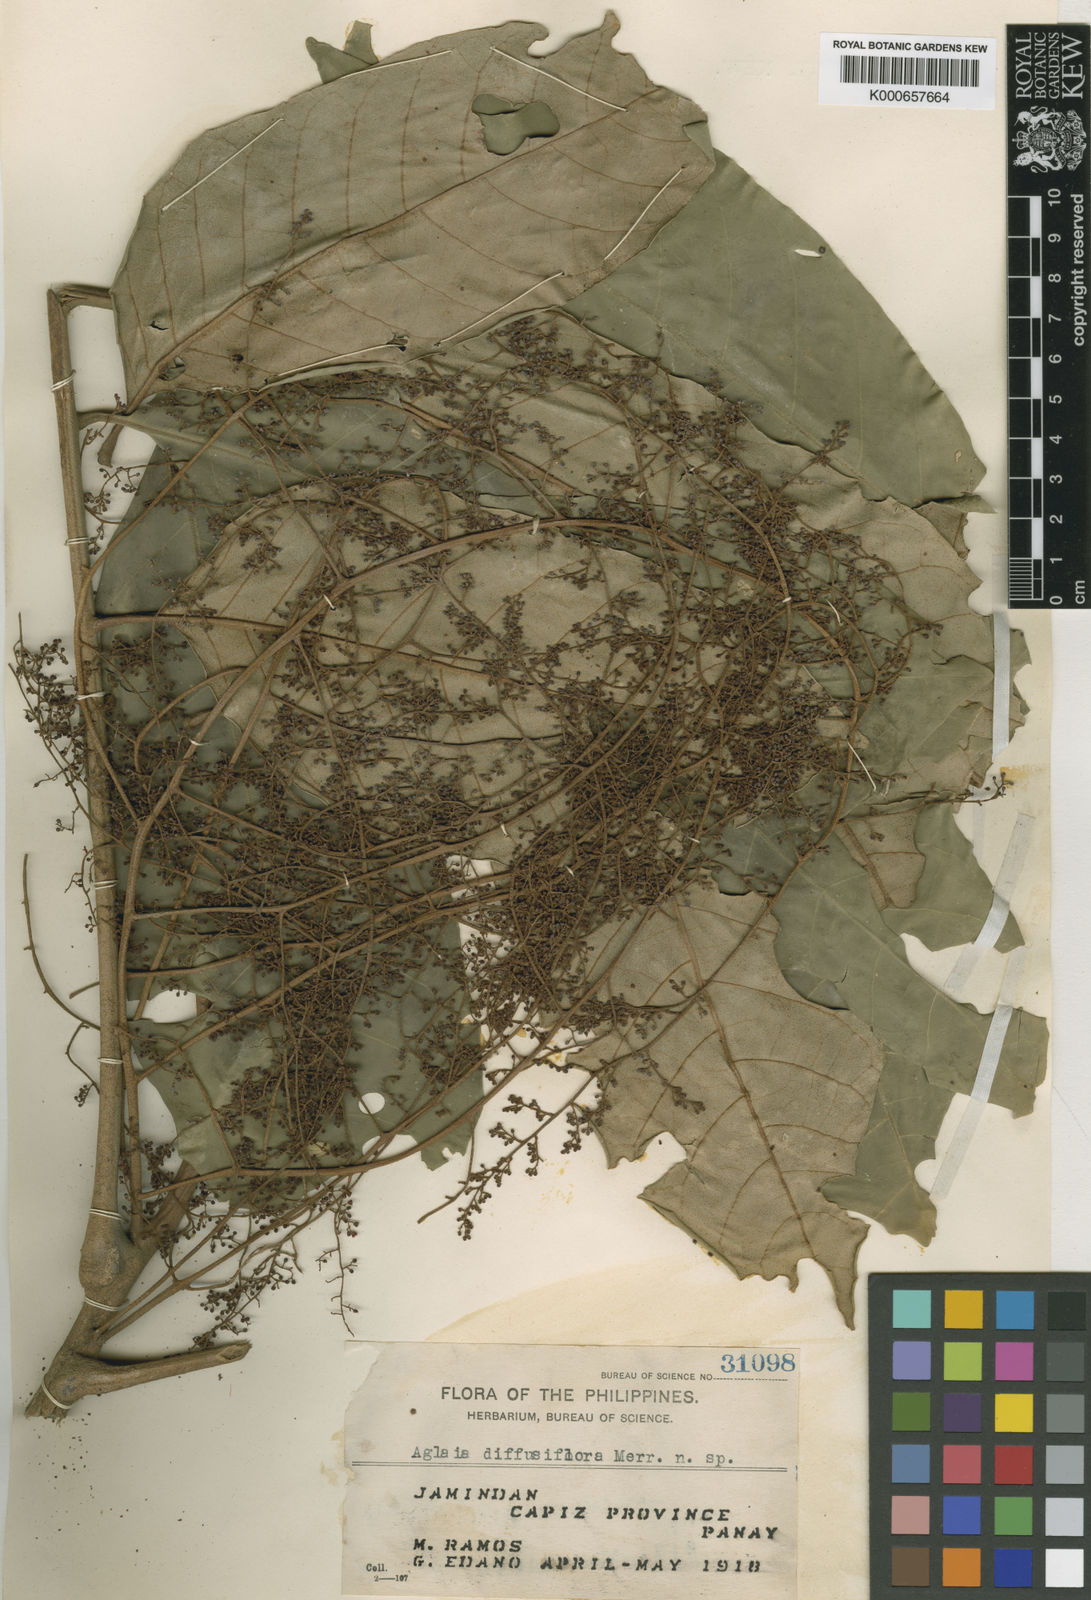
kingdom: Plantae
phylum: Tracheophyta
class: Magnoliopsida
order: Sapindales
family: Meliaceae
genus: Aglaia
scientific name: Aglaia rimosa
